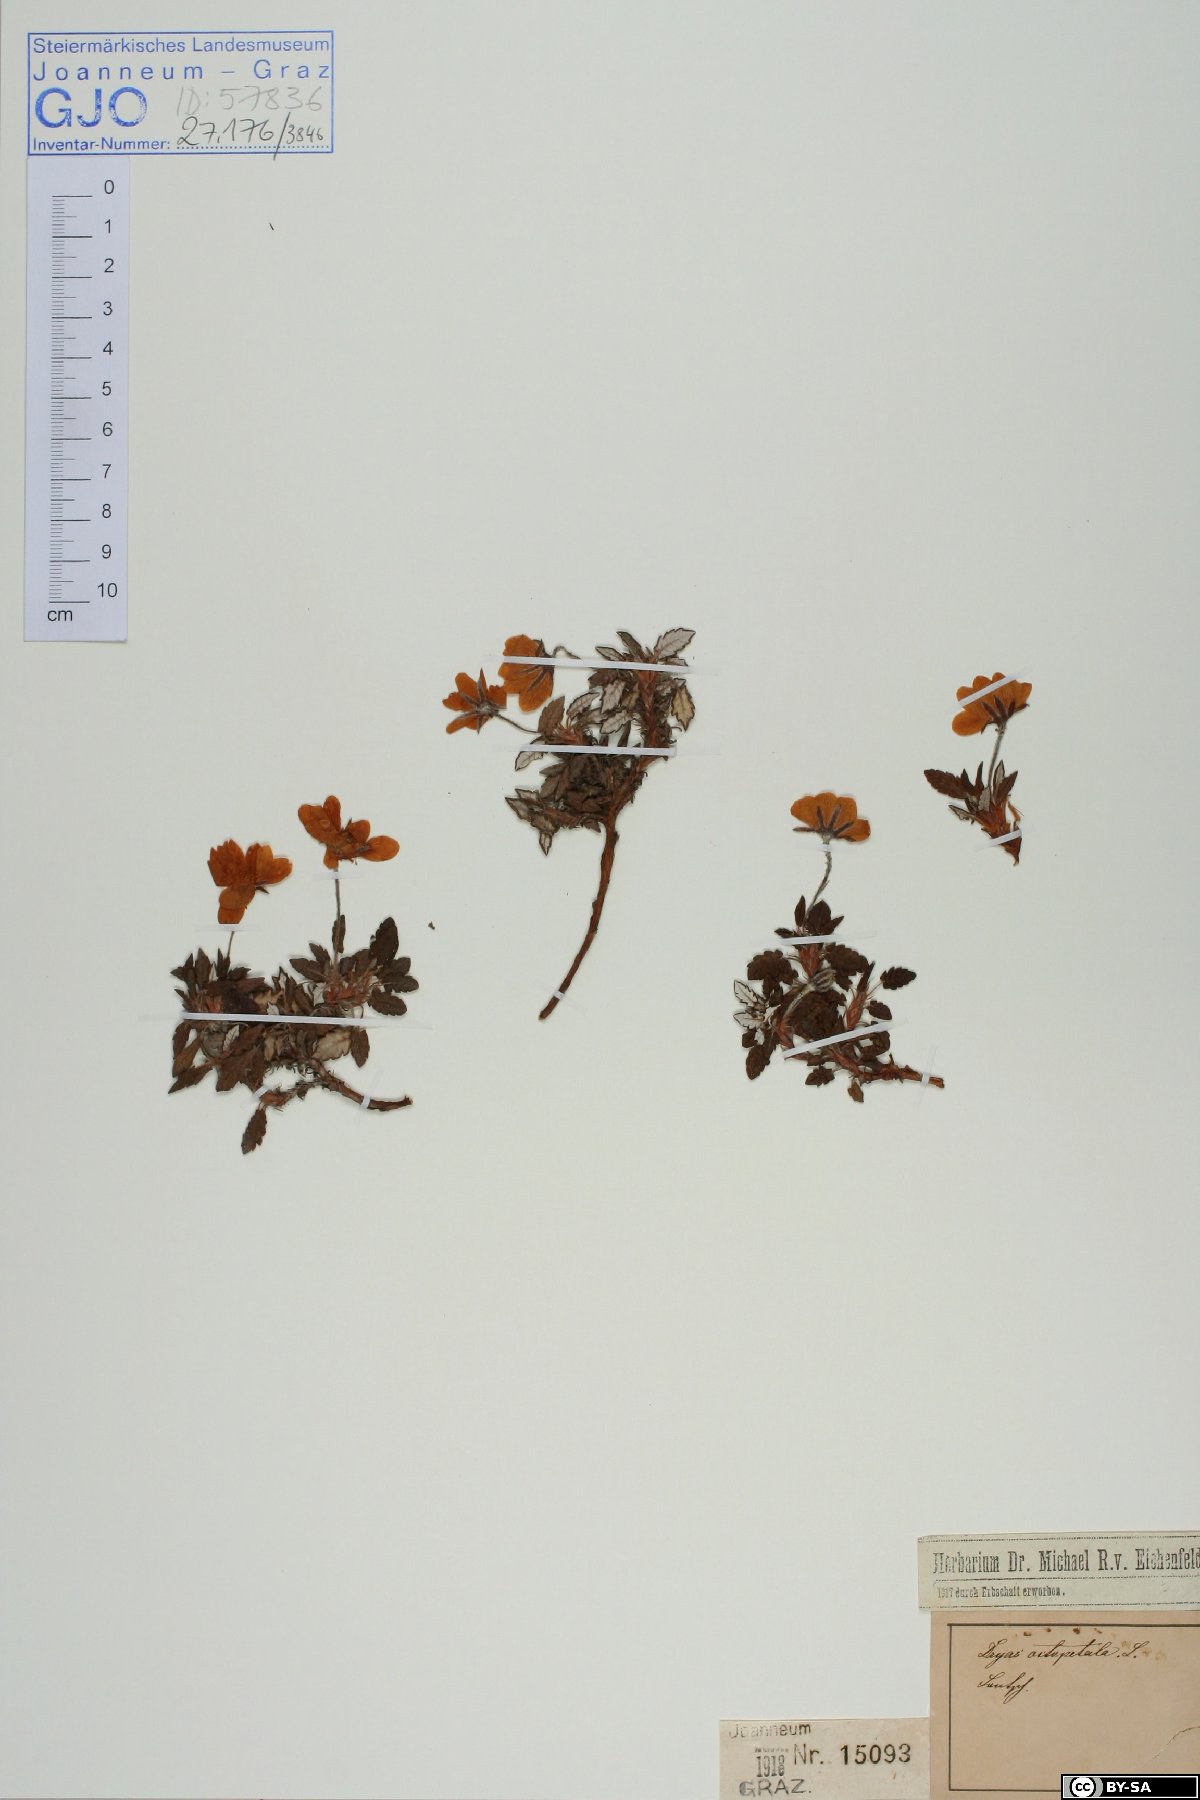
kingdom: Plantae
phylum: Tracheophyta
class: Magnoliopsida
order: Rosales
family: Rosaceae
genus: Dryas
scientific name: Dryas octopetala
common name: Eight-petal mountain-avens
